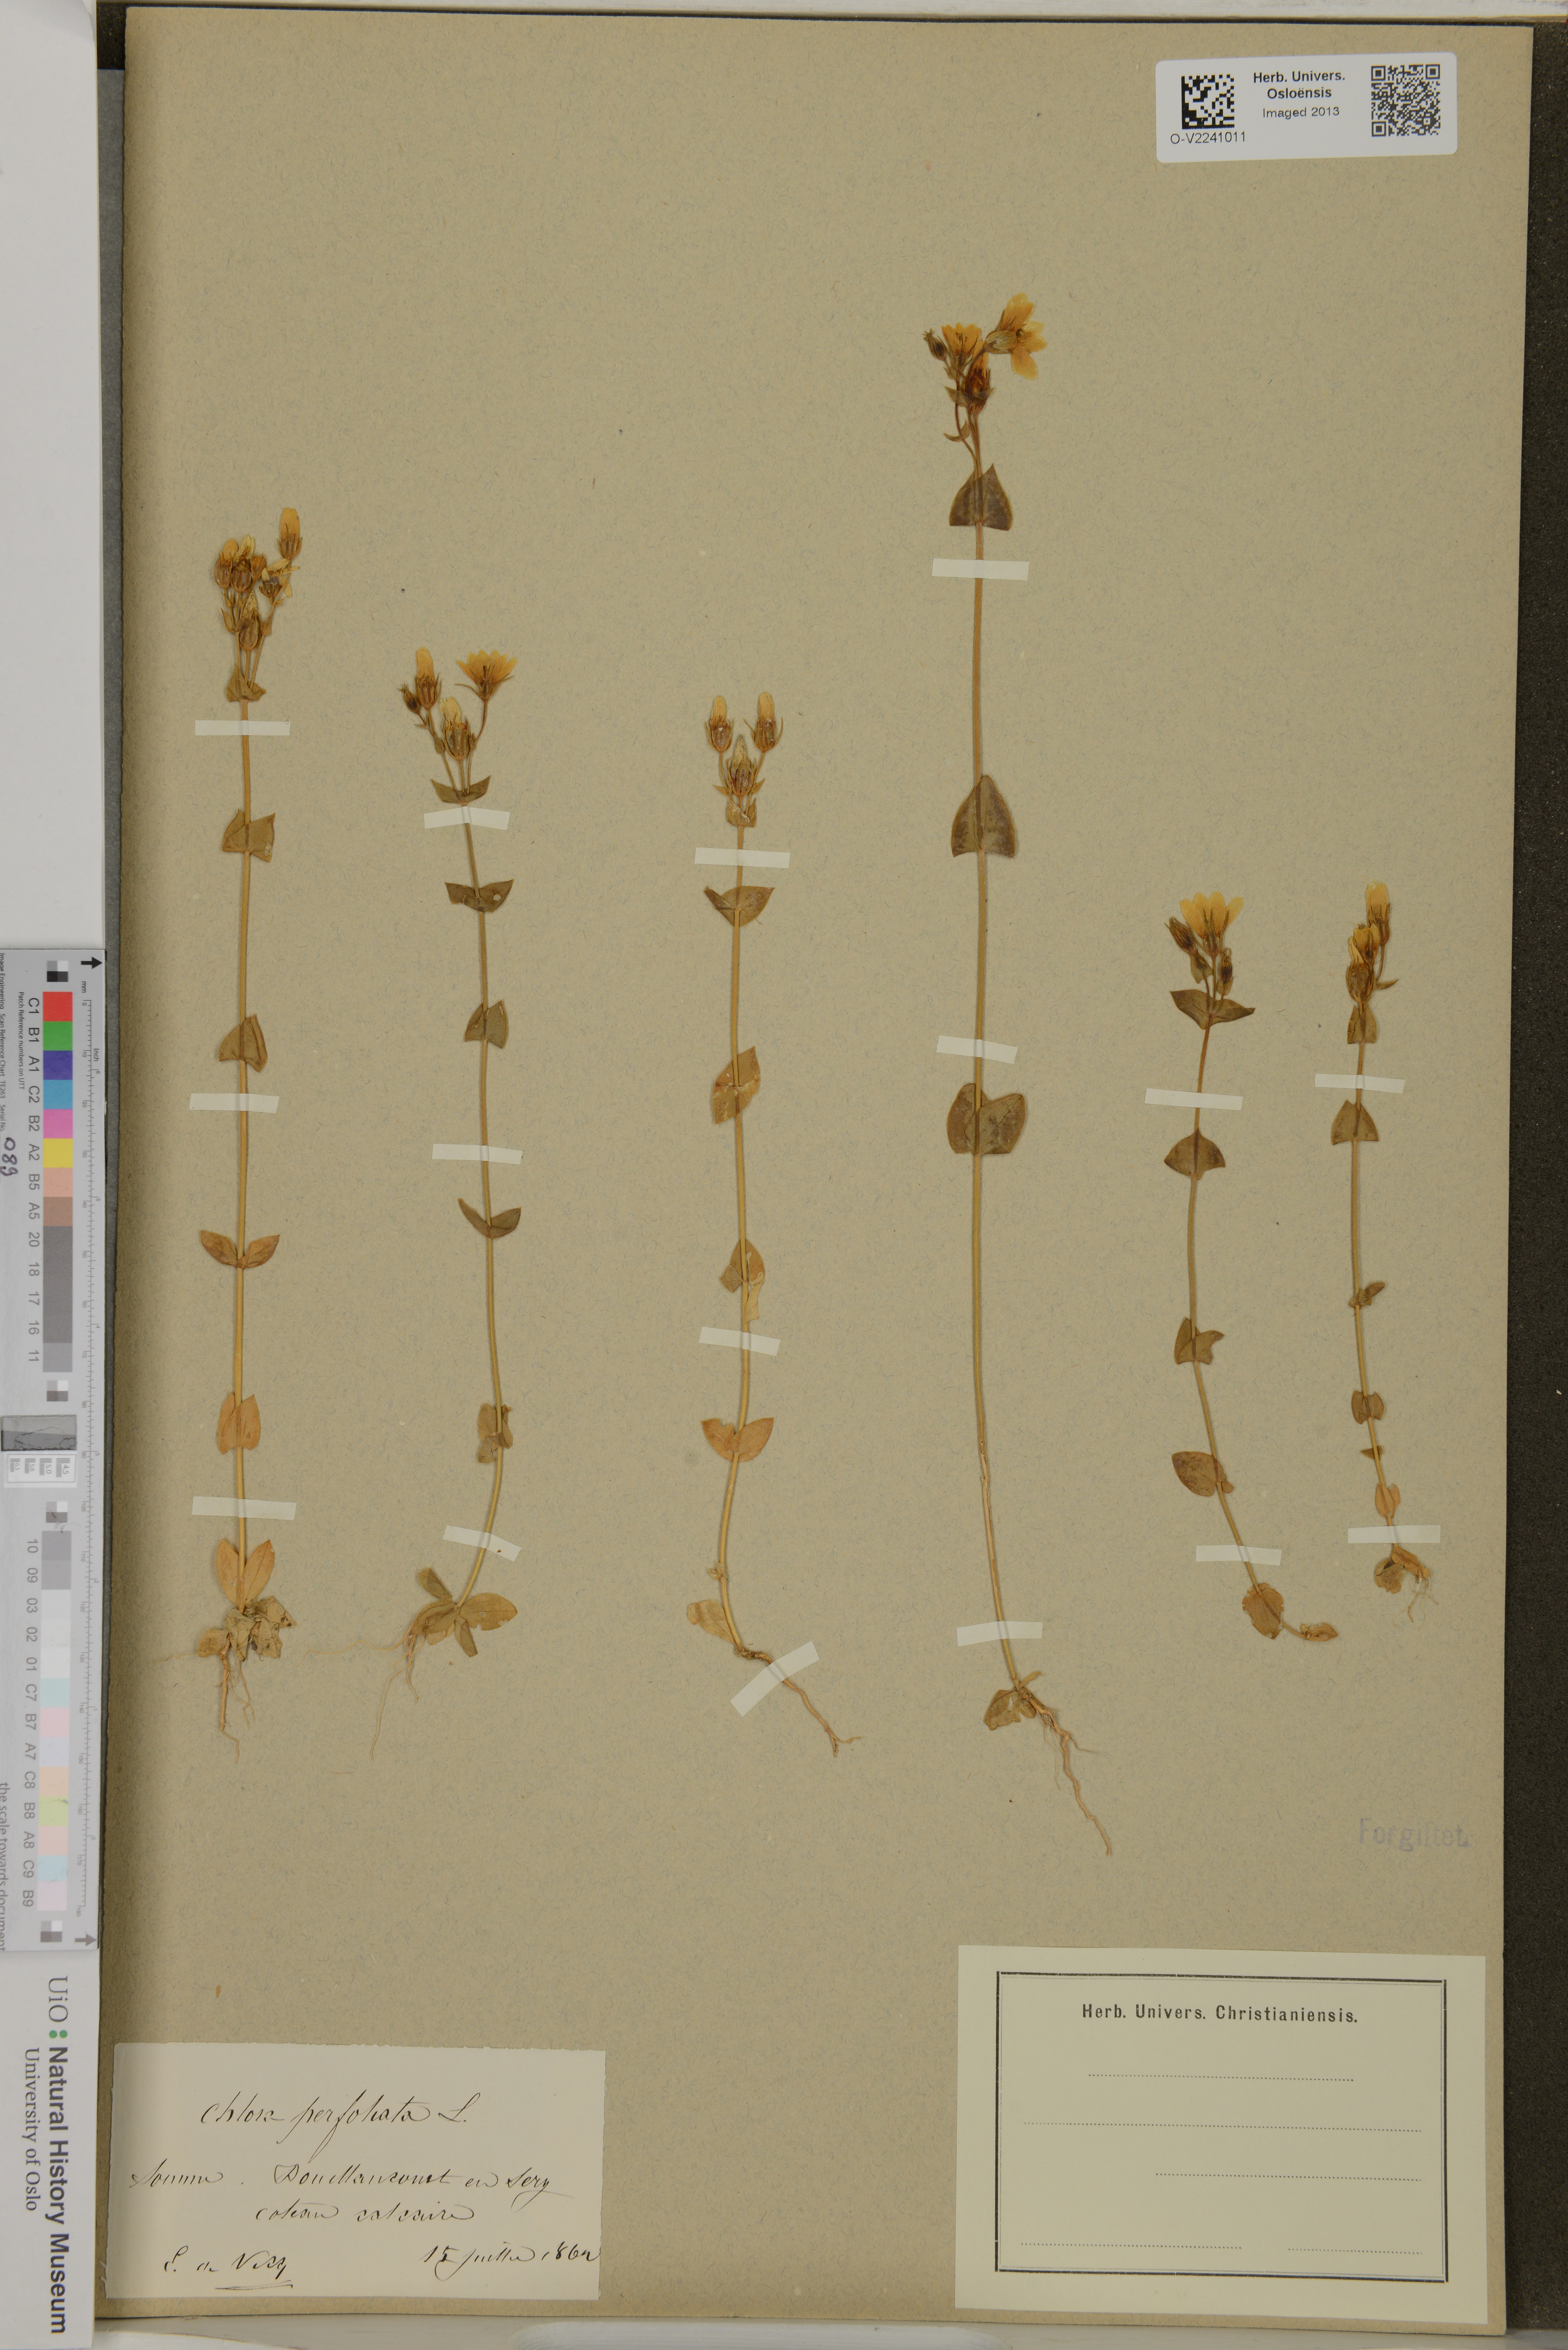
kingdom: Plantae
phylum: Tracheophyta
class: Magnoliopsida
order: Gentianales
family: Gentianaceae
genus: Blackstonia
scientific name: Blackstonia perfoliata
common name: Yellow-wort
